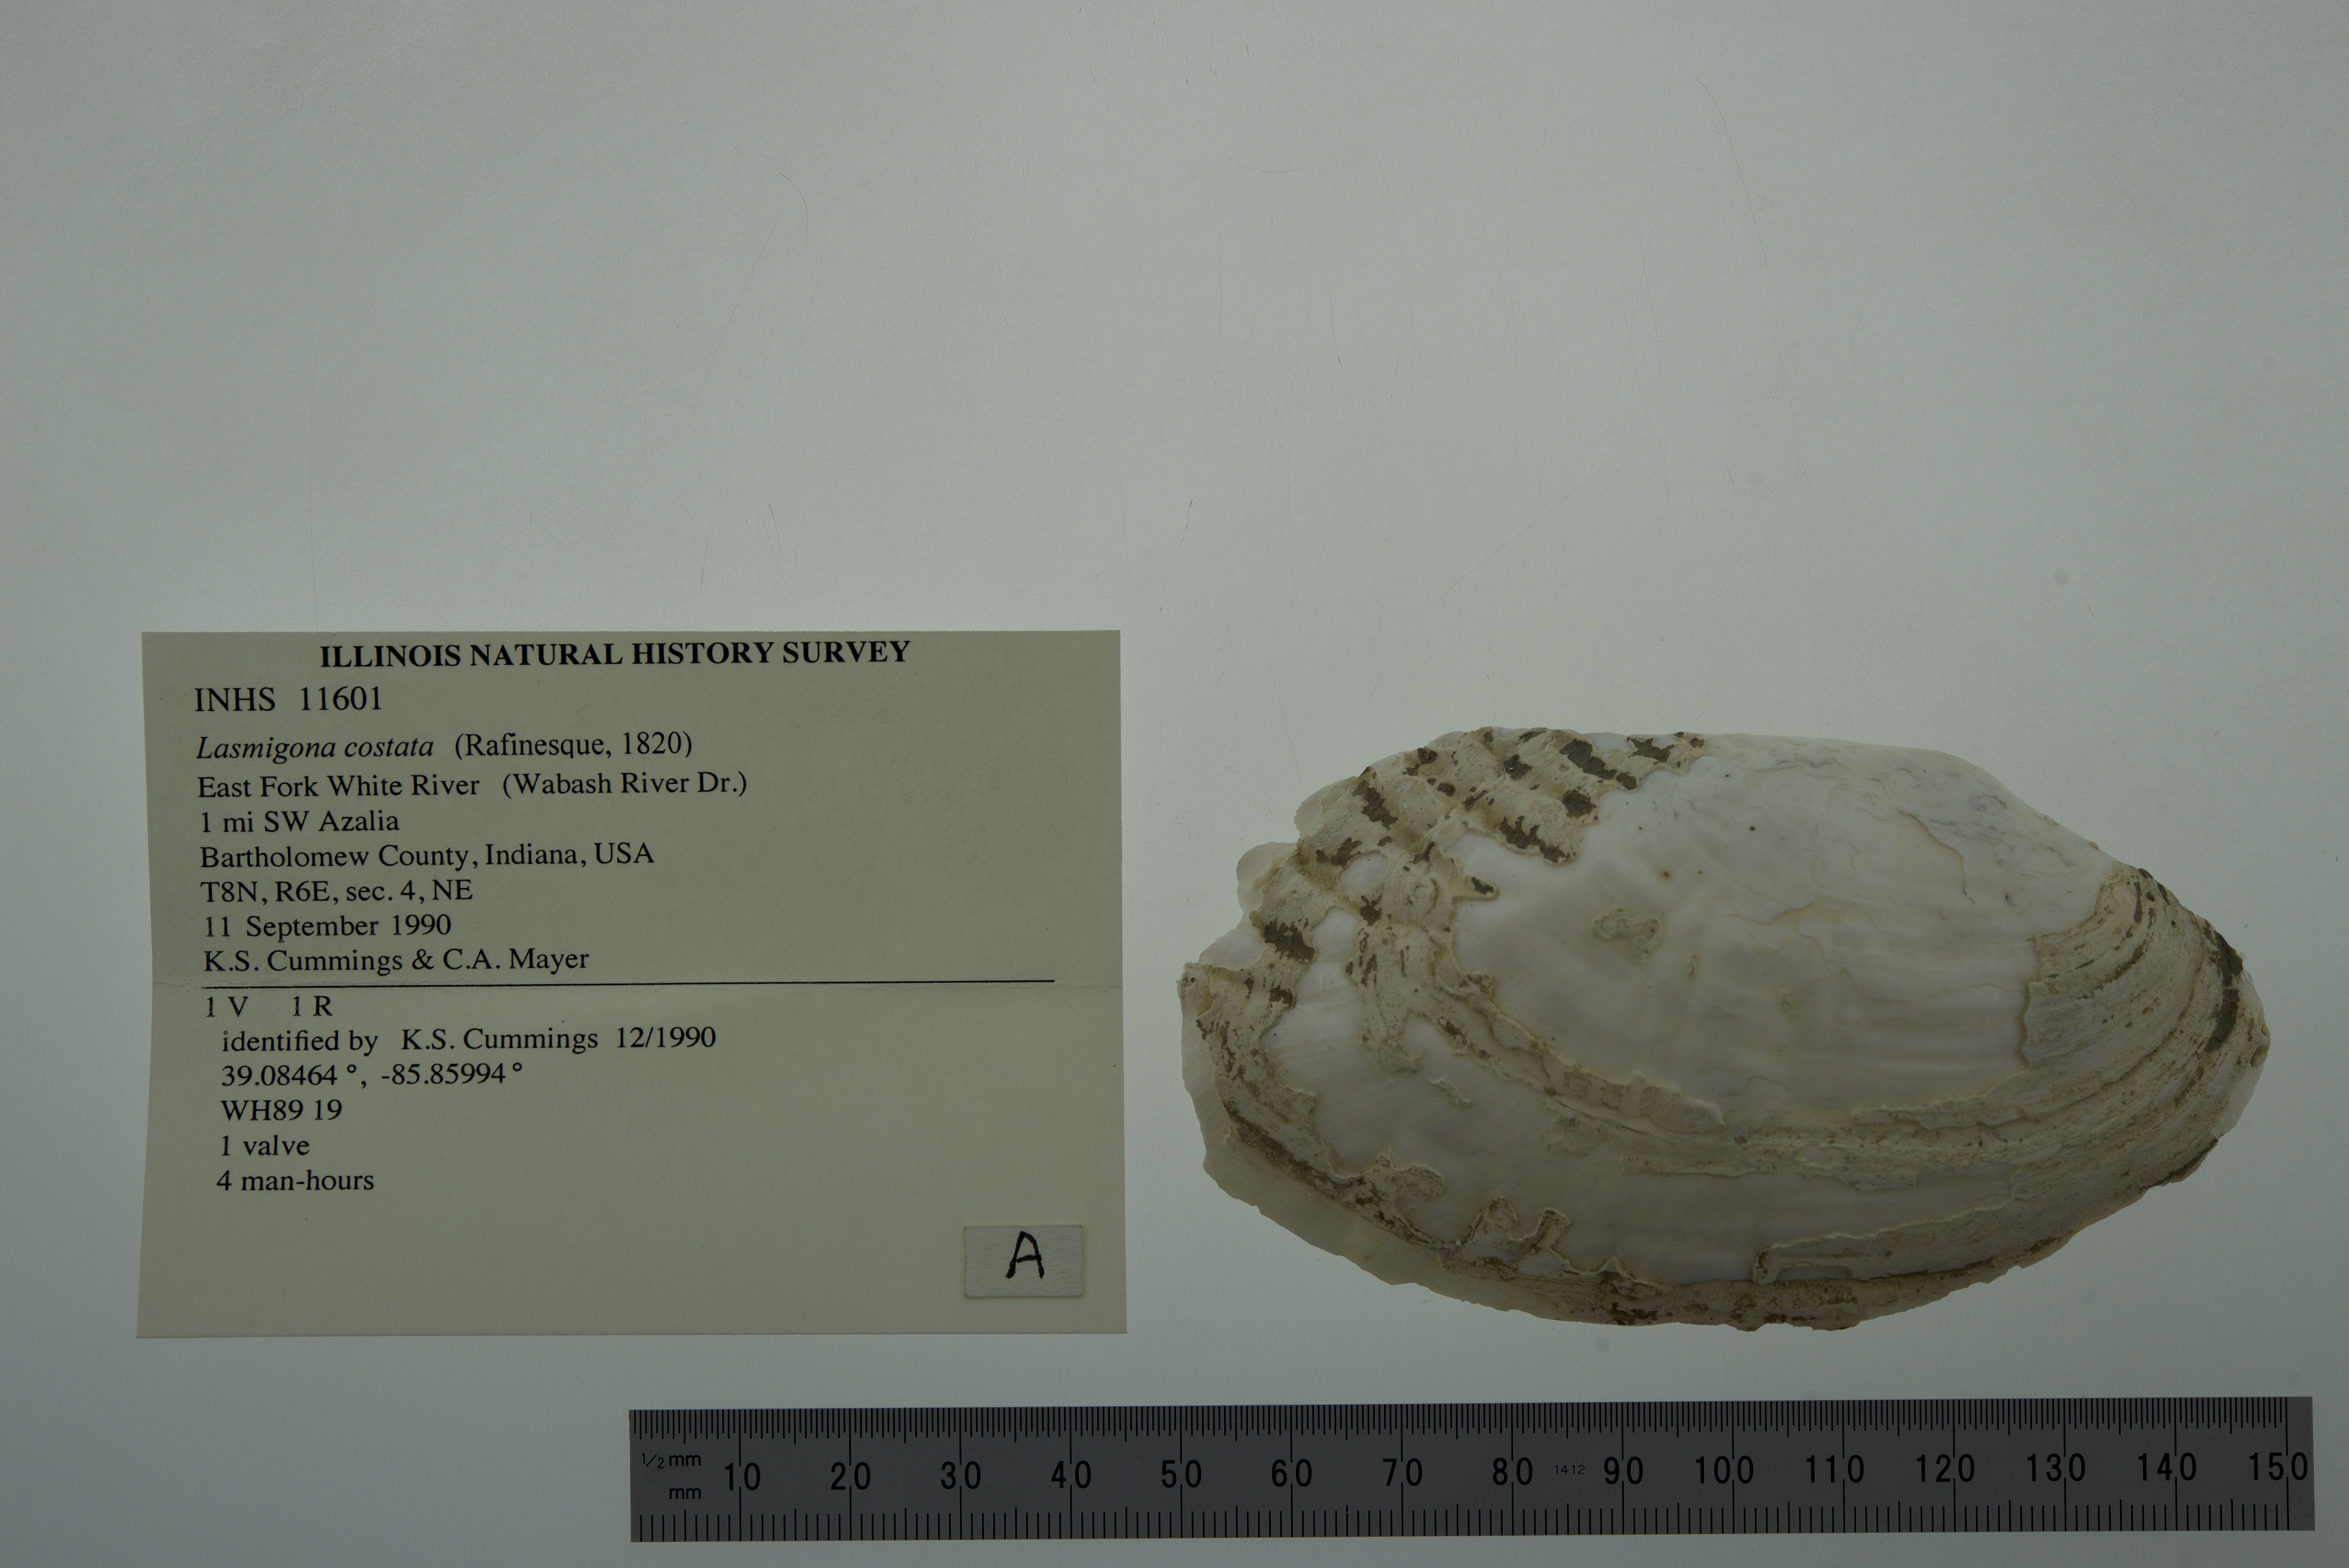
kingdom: Animalia
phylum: Mollusca
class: Bivalvia
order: Unionida
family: Unionidae
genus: Lasmigona
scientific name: Lasmigona costata
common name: Flutedshell
